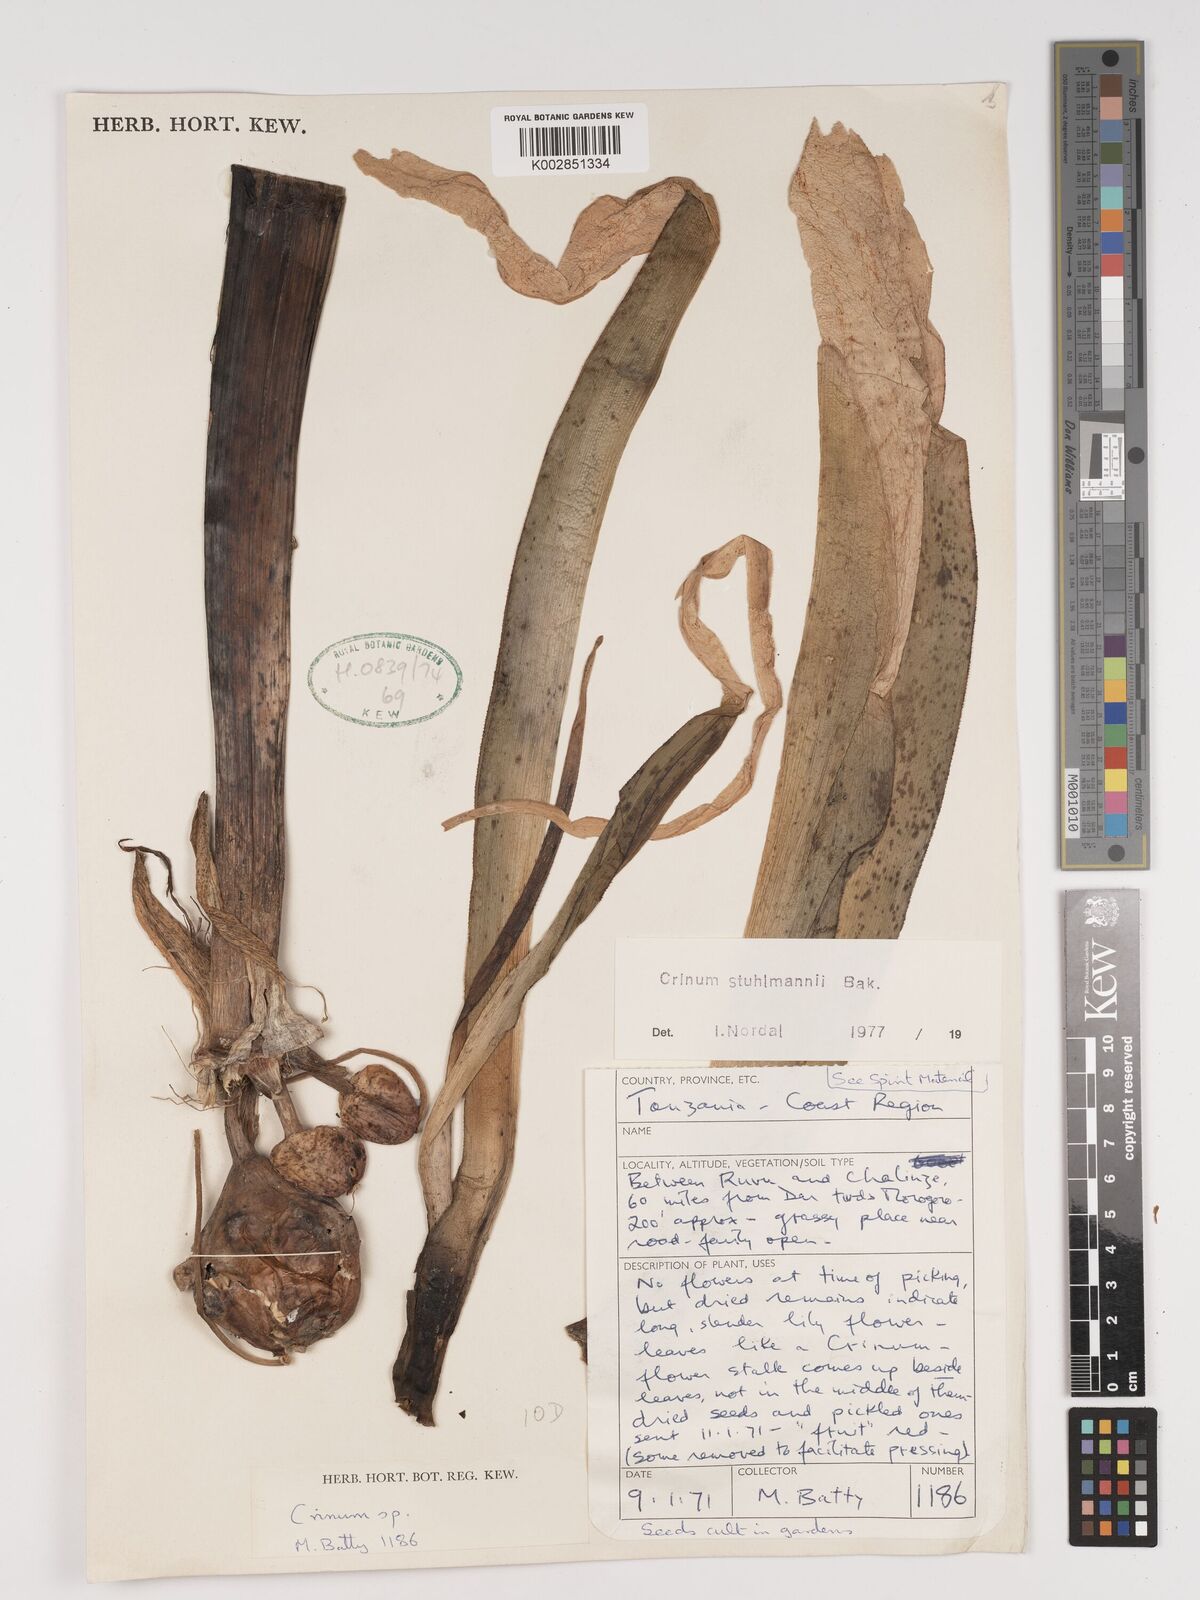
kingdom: Plantae
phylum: Tracheophyta
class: Liliopsida
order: Asparagales
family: Amaryllidaceae
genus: Crinum
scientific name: Crinum stuhlmannii
